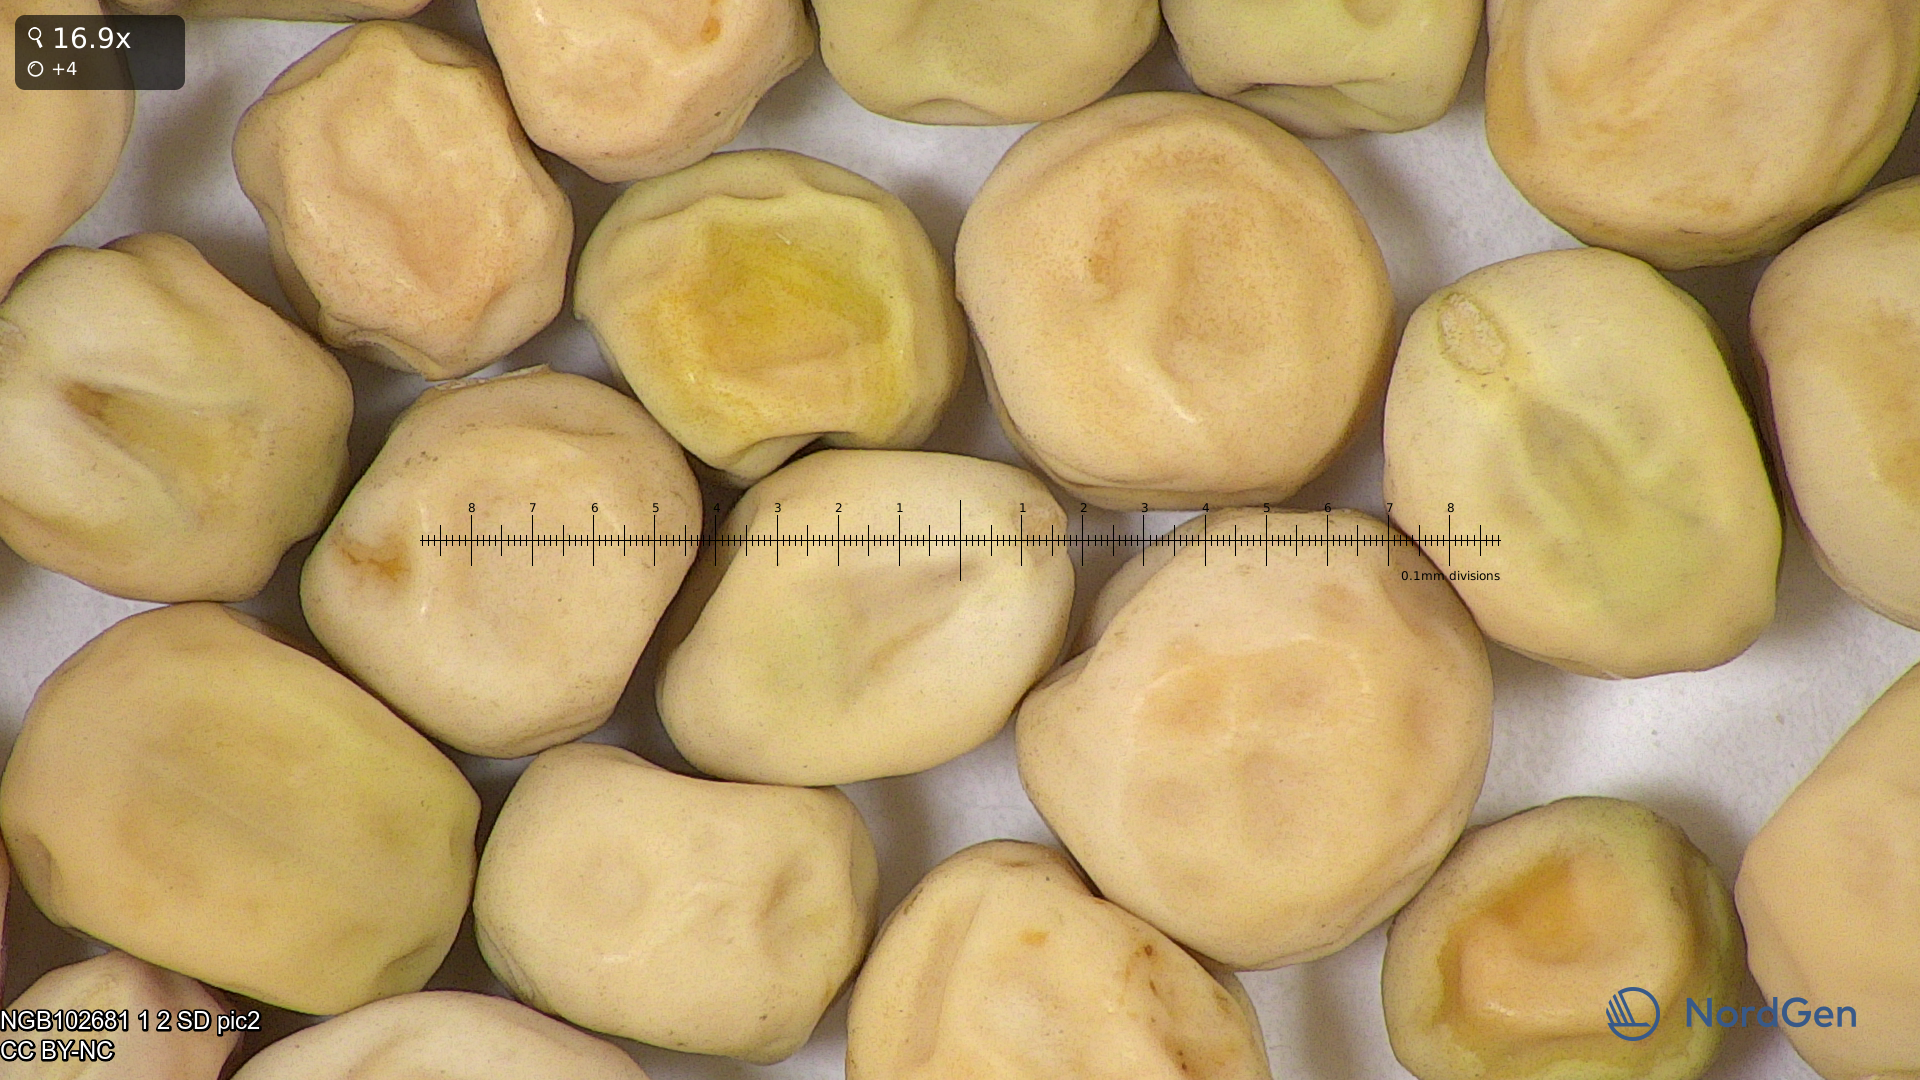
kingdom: Plantae
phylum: Tracheophyta
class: Magnoliopsida
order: Fabales
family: Fabaceae
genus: Lathyrus
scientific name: Lathyrus oleraceus
